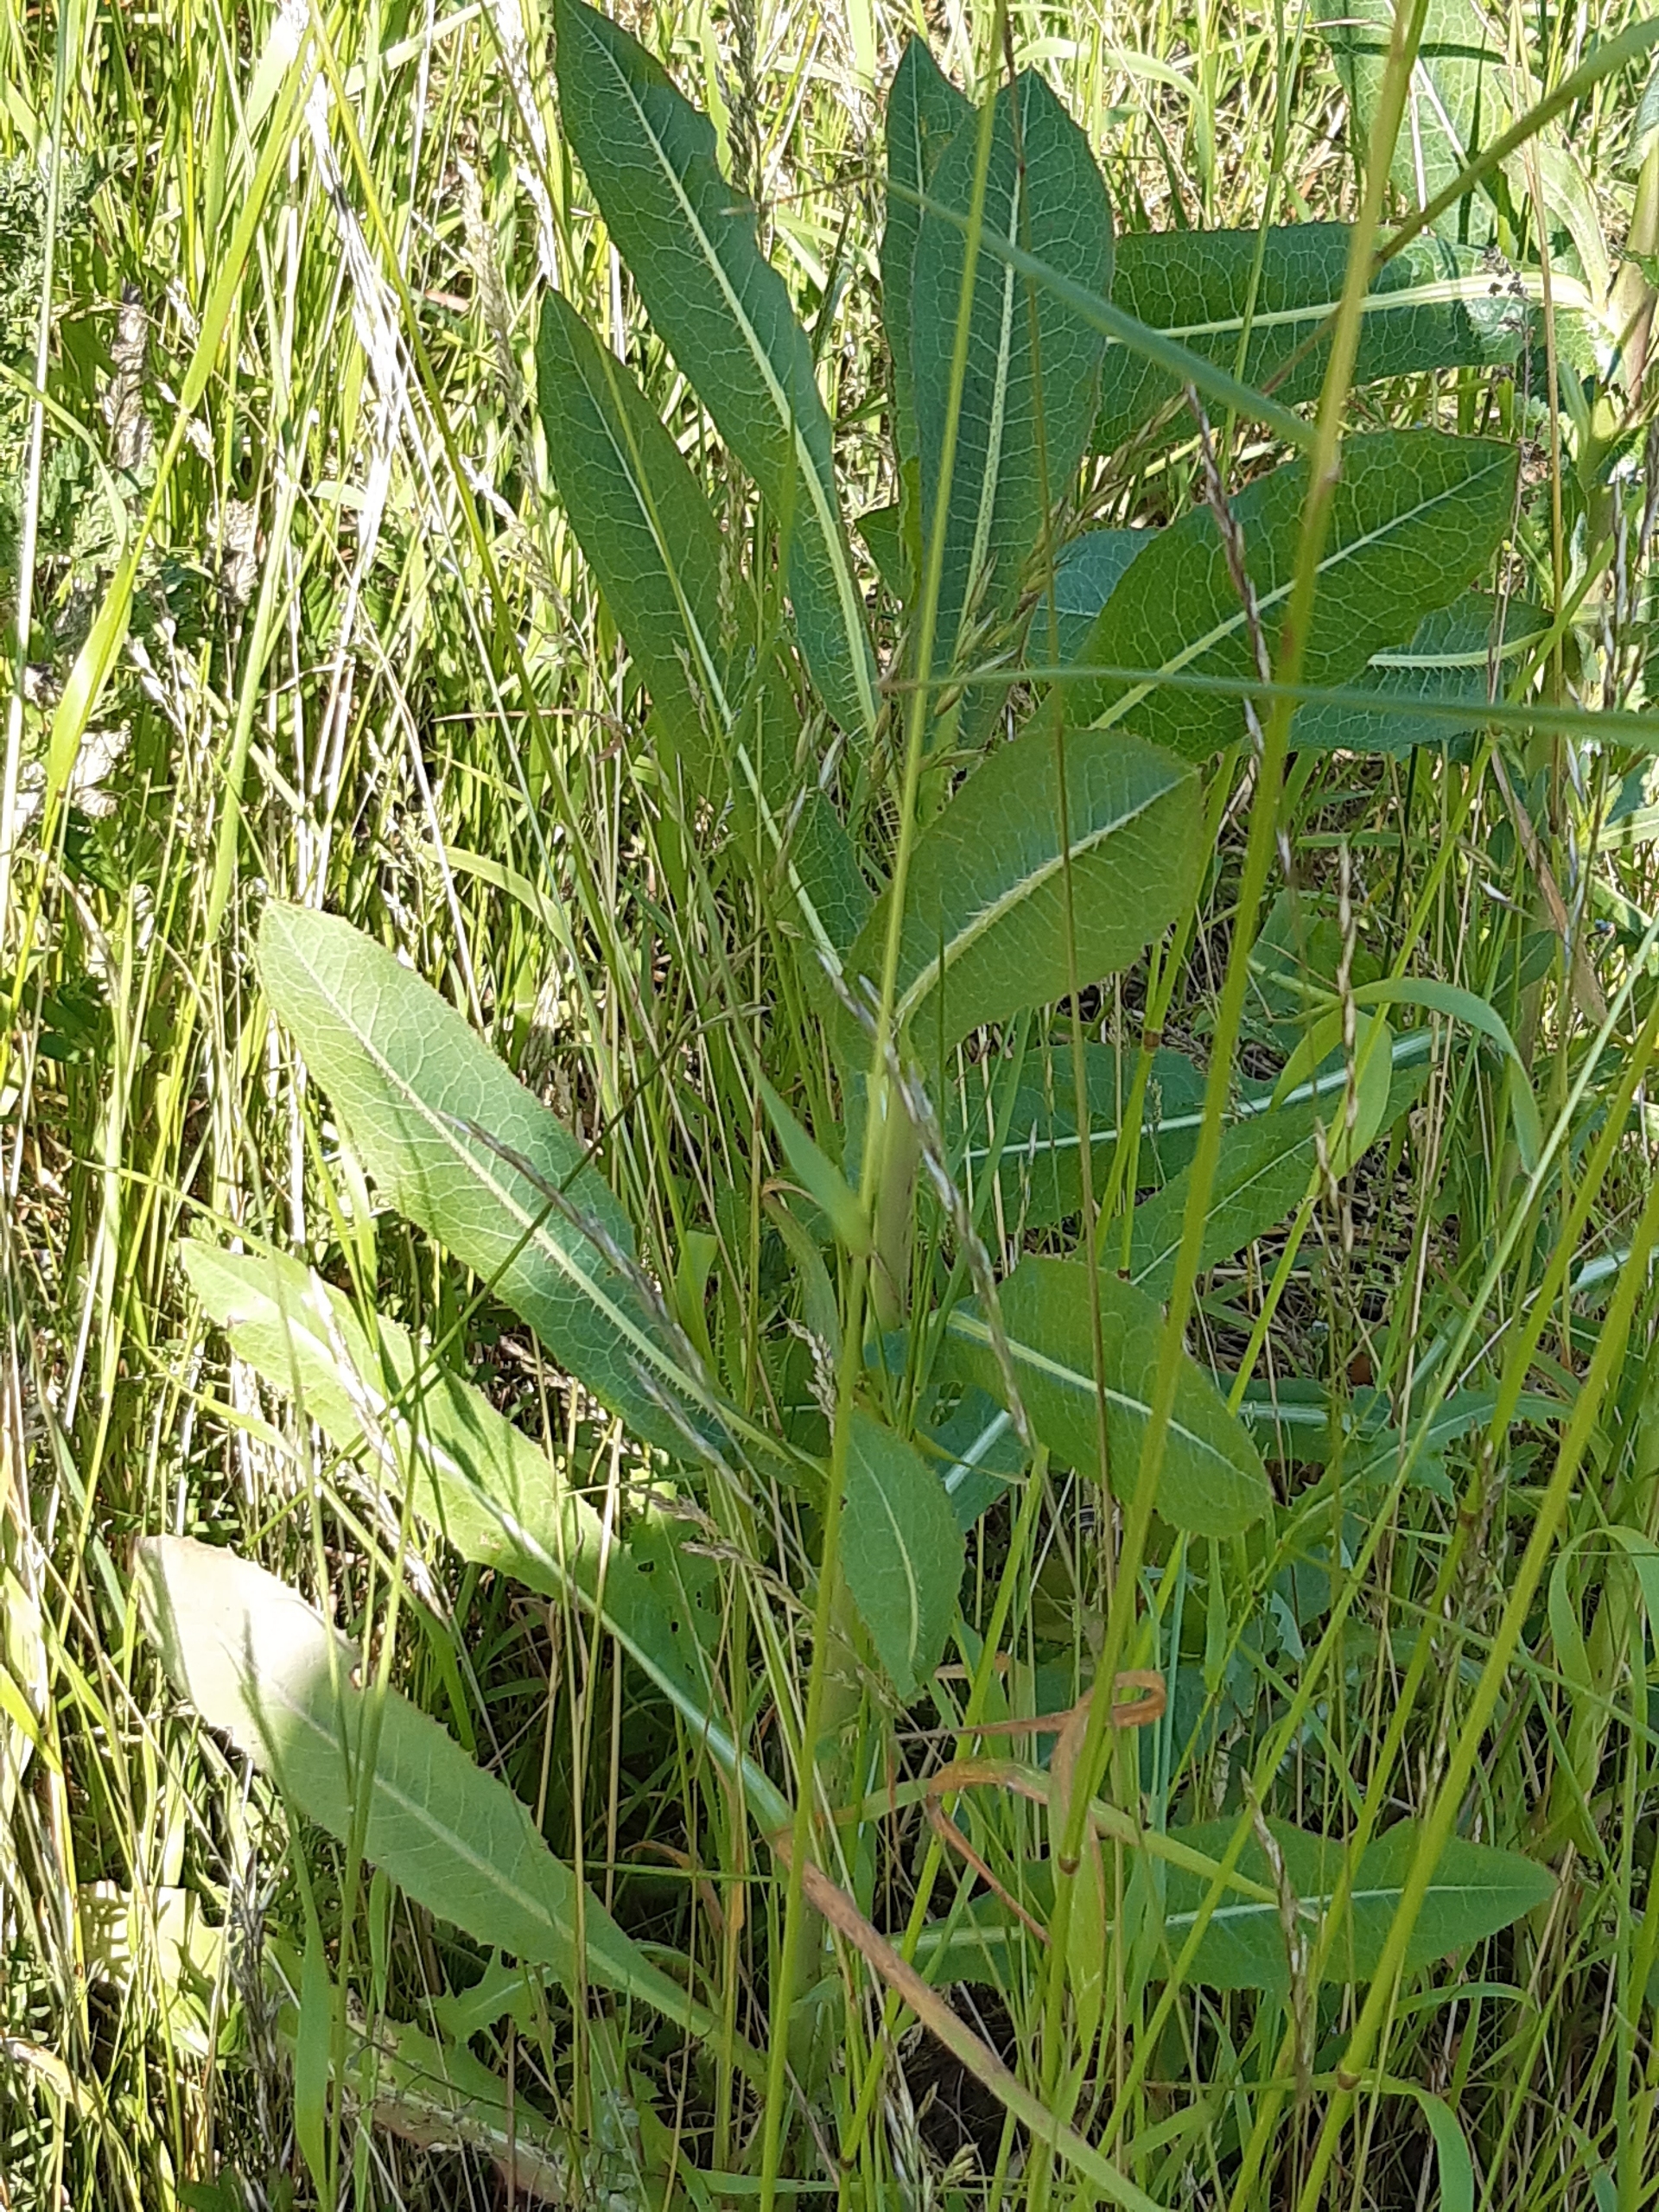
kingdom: Plantae
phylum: Tracheophyta
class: Magnoliopsida
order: Asterales
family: Asteraceae
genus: Lactuca
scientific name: Lactuca serriola
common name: Tornet salat
